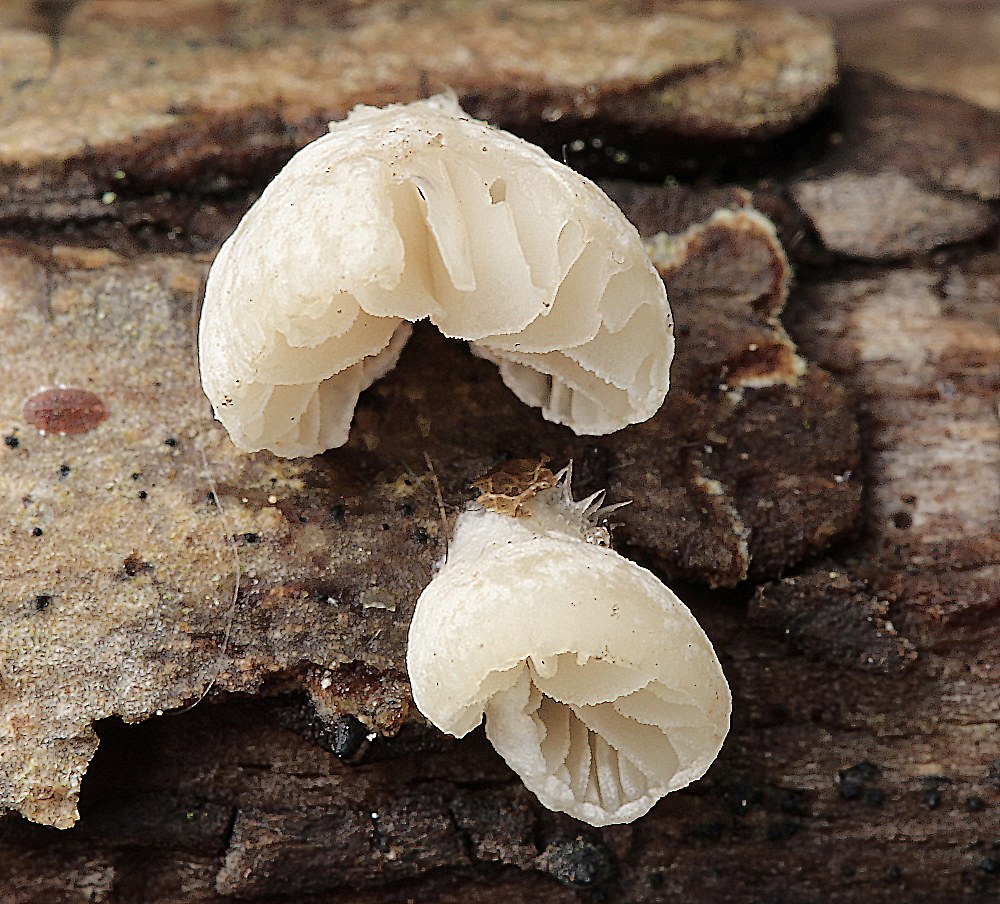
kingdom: Fungi
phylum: Basidiomycota
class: Agaricomycetes
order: Agaricales
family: Crepidotaceae
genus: Crepidotus
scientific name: Crepidotus cesatii
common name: almindelig muslingesvamp
